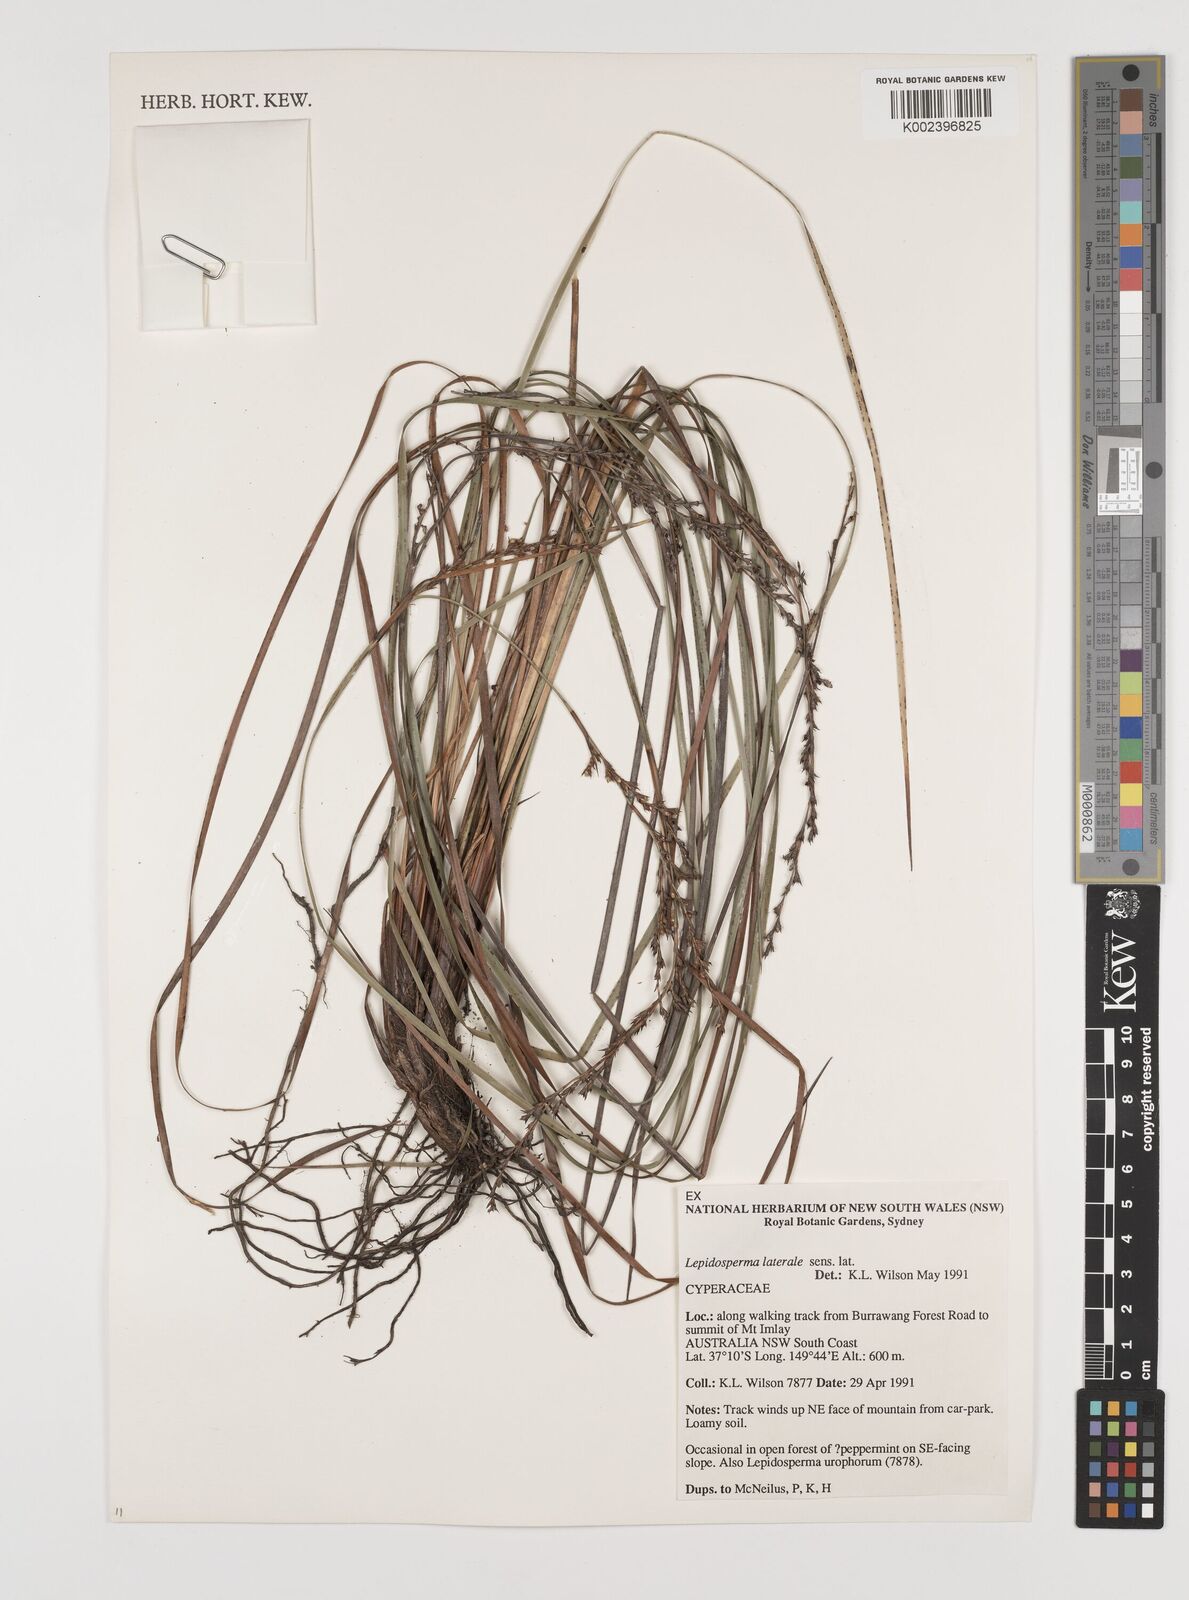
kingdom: Plantae
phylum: Tracheophyta
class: Liliopsida
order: Poales
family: Cyperaceae
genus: Lepidosperma
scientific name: Lepidosperma laterale
